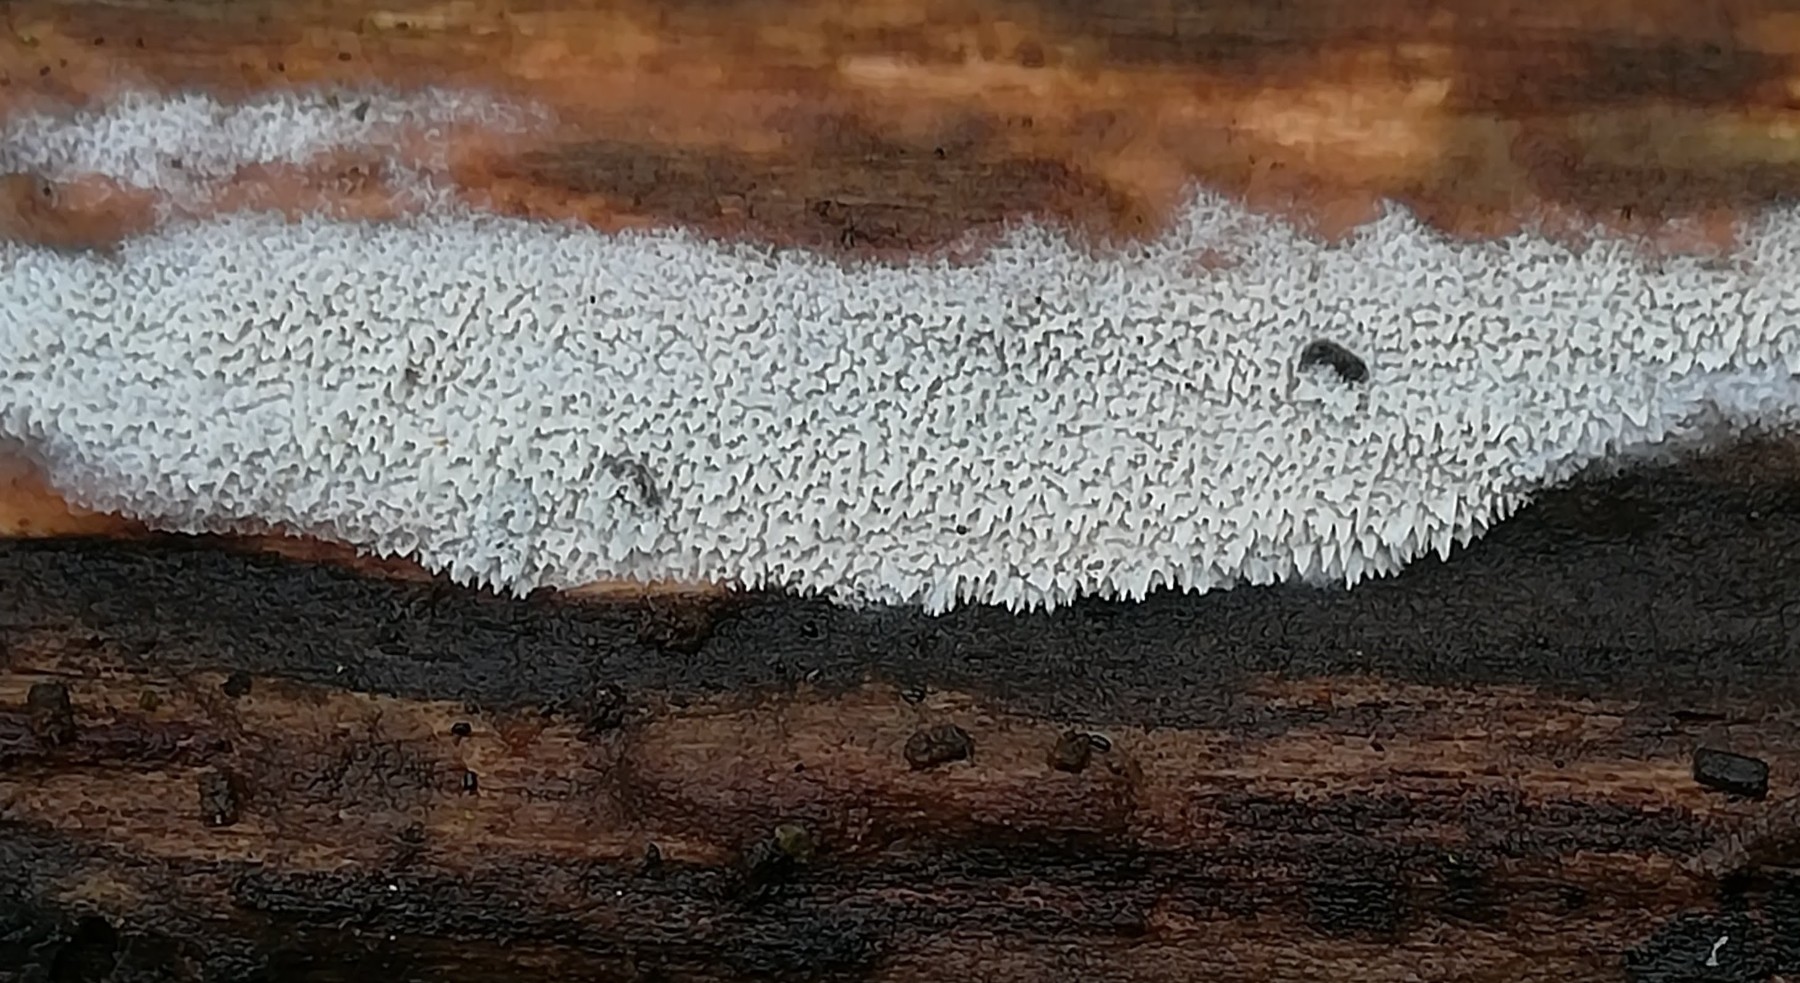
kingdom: Fungi
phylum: Basidiomycota
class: Agaricomycetes
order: Hymenochaetales
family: Schizoporaceae
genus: Schizopora
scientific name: Schizopora paradoxa
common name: hvid tandsvamp
